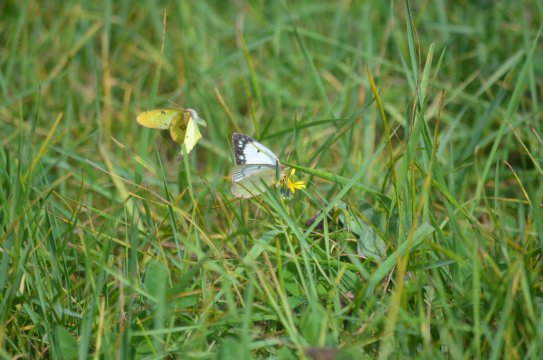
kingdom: Animalia
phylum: Arthropoda
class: Insecta
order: Lepidoptera
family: Pieridae
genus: Colias
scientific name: Colias
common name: Clouded Yellows
